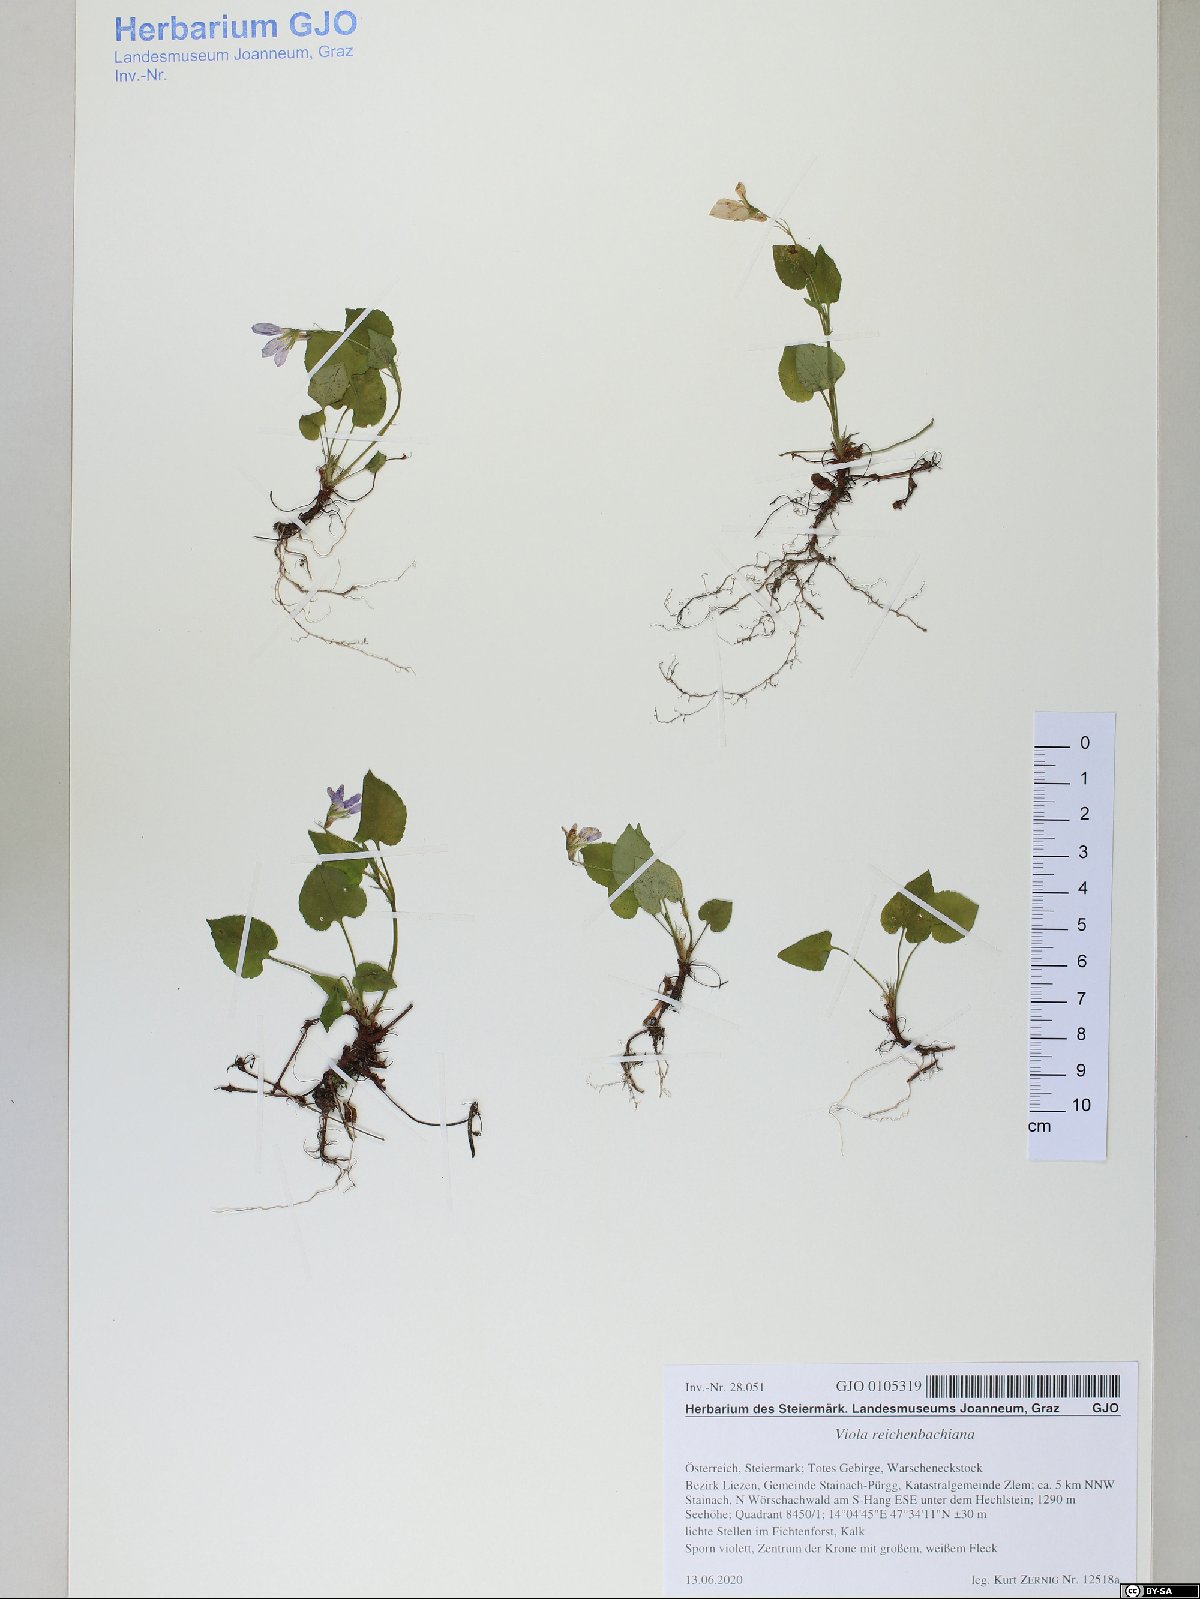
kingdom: Plantae
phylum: Tracheophyta
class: Magnoliopsida
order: Malpighiales
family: Violaceae
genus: Viola
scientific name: Viola reichenbachiana
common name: Early dog-violet
